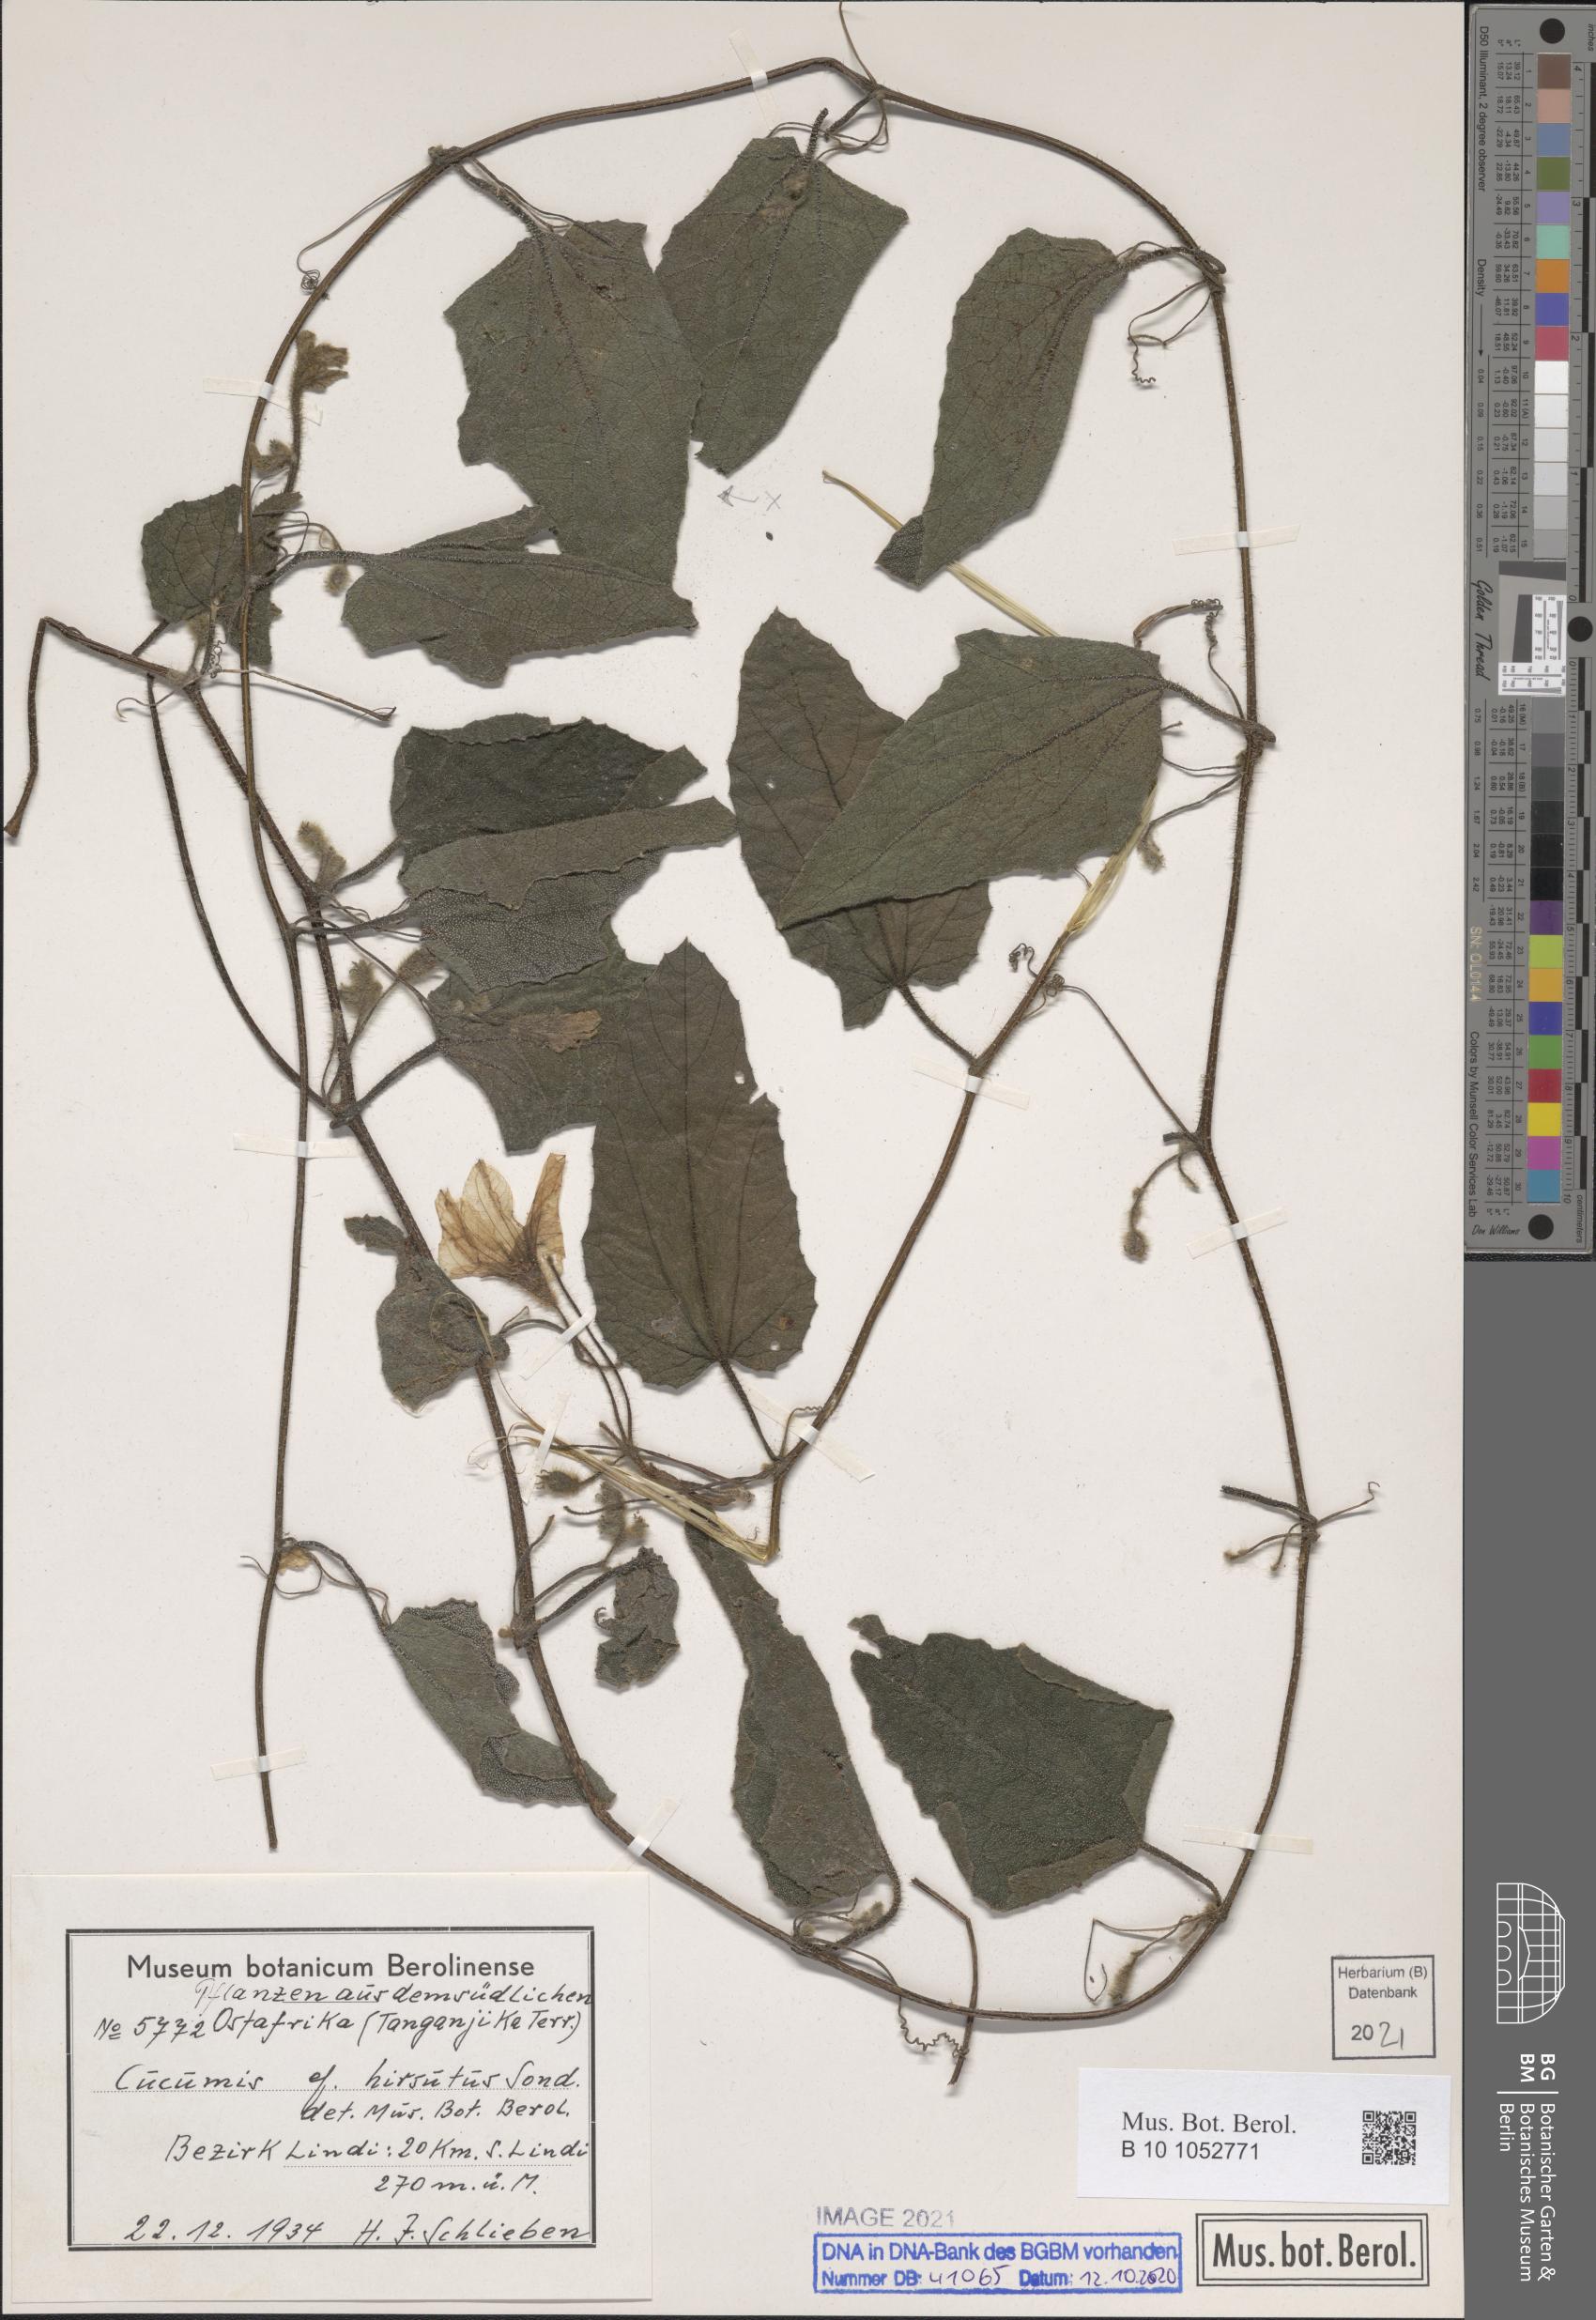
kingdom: Plantae
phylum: Tracheophyta
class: Magnoliopsida
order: Cucurbitales
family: Cucurbitaceae
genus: Cucumis
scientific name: Cucumis hirsutus
